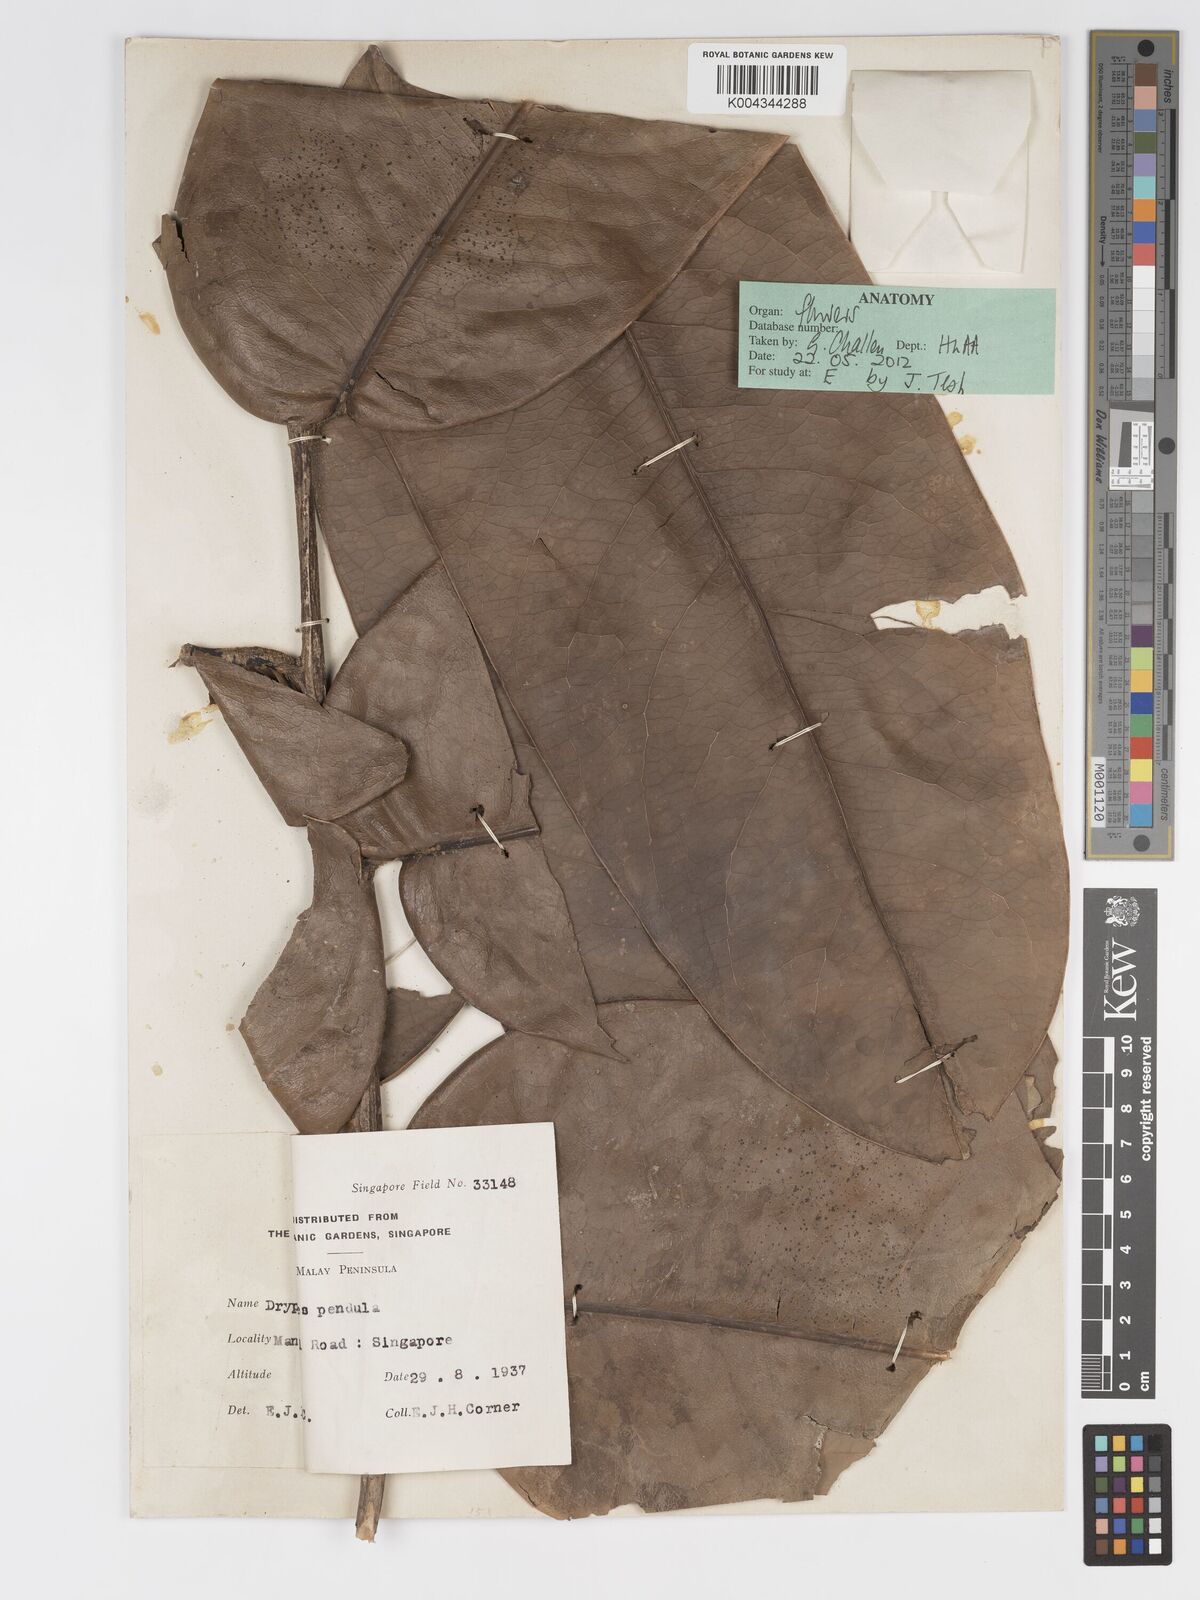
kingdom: Plantae
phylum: Tracheophyta
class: Magnoliopsida
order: Malpighiales
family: Putranjivaceae
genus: Drypetes
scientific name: Drypetes pendula
